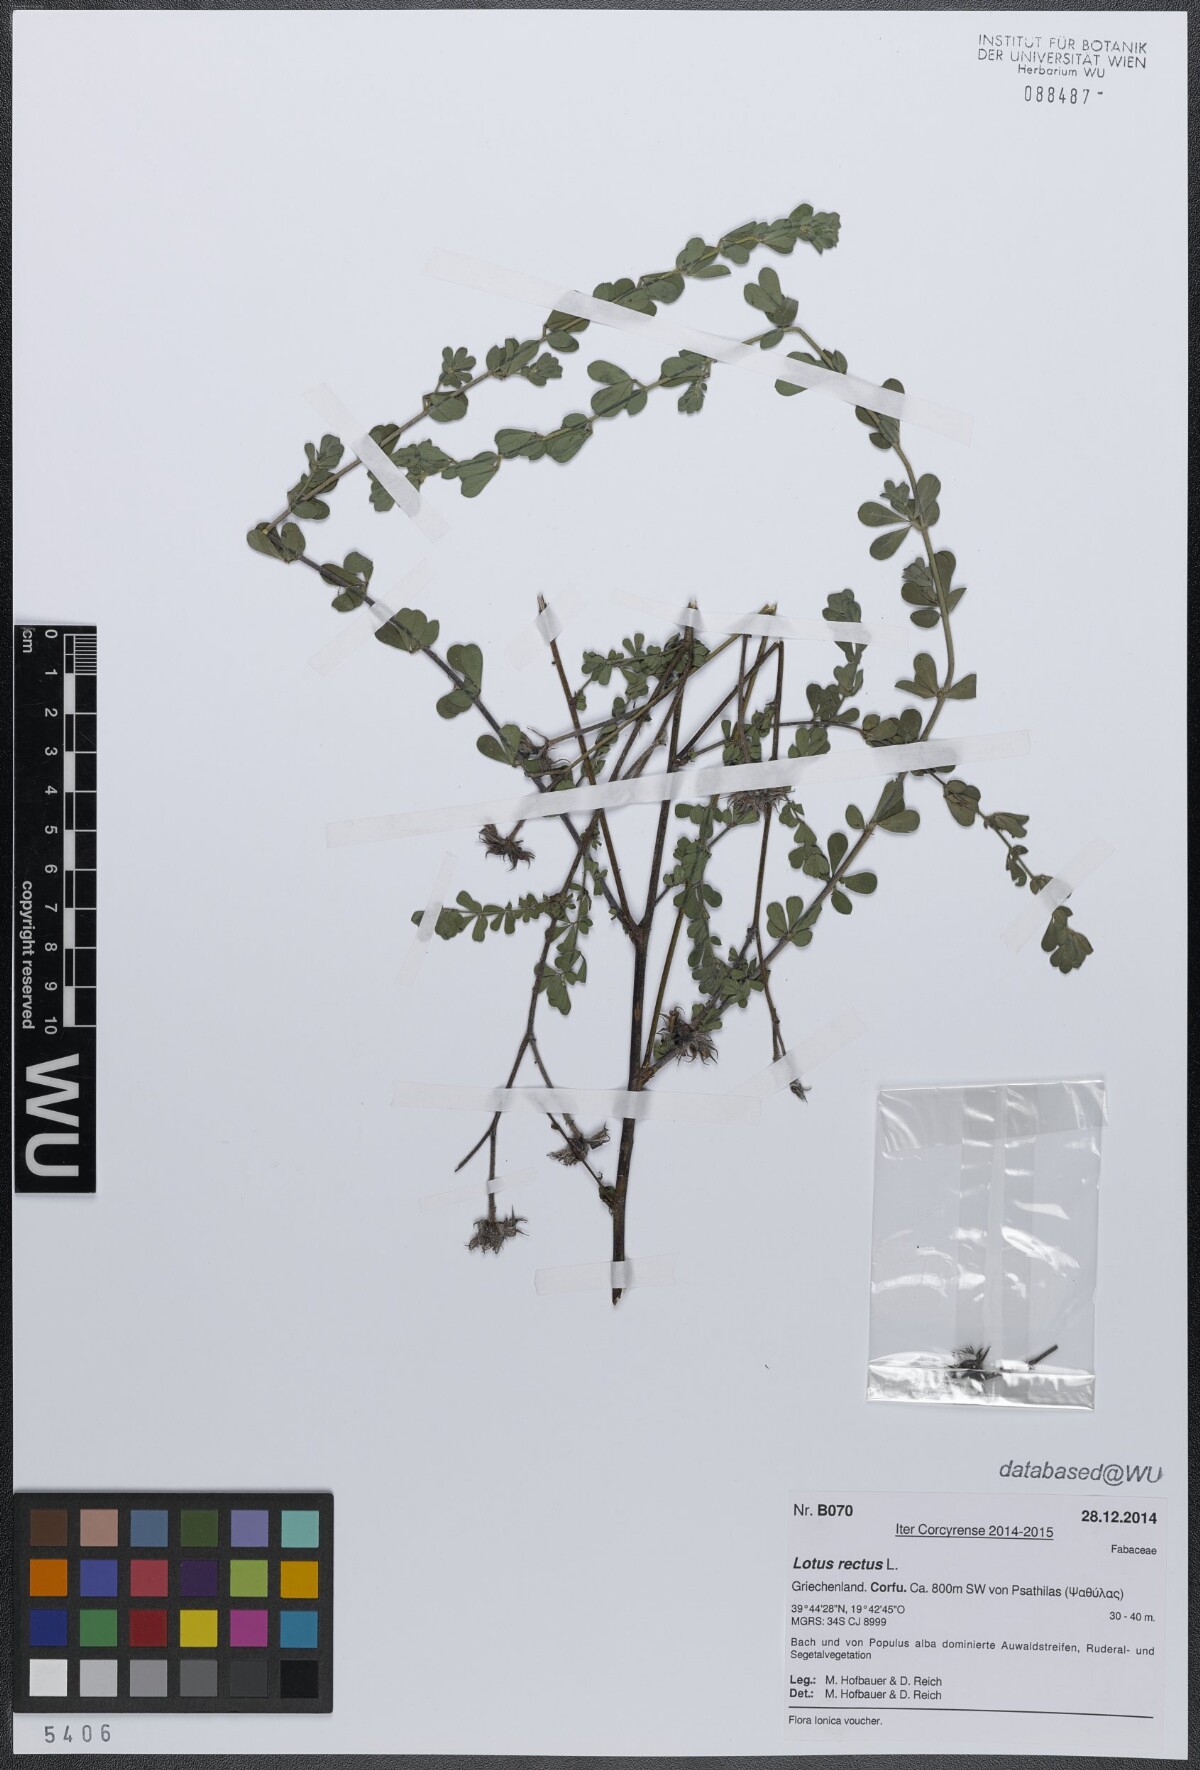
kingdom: Plantae
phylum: Tracheophyta
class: Magnoliopsida
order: Fabales
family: Fabaceae
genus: Lotus
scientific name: Lotus rectus
